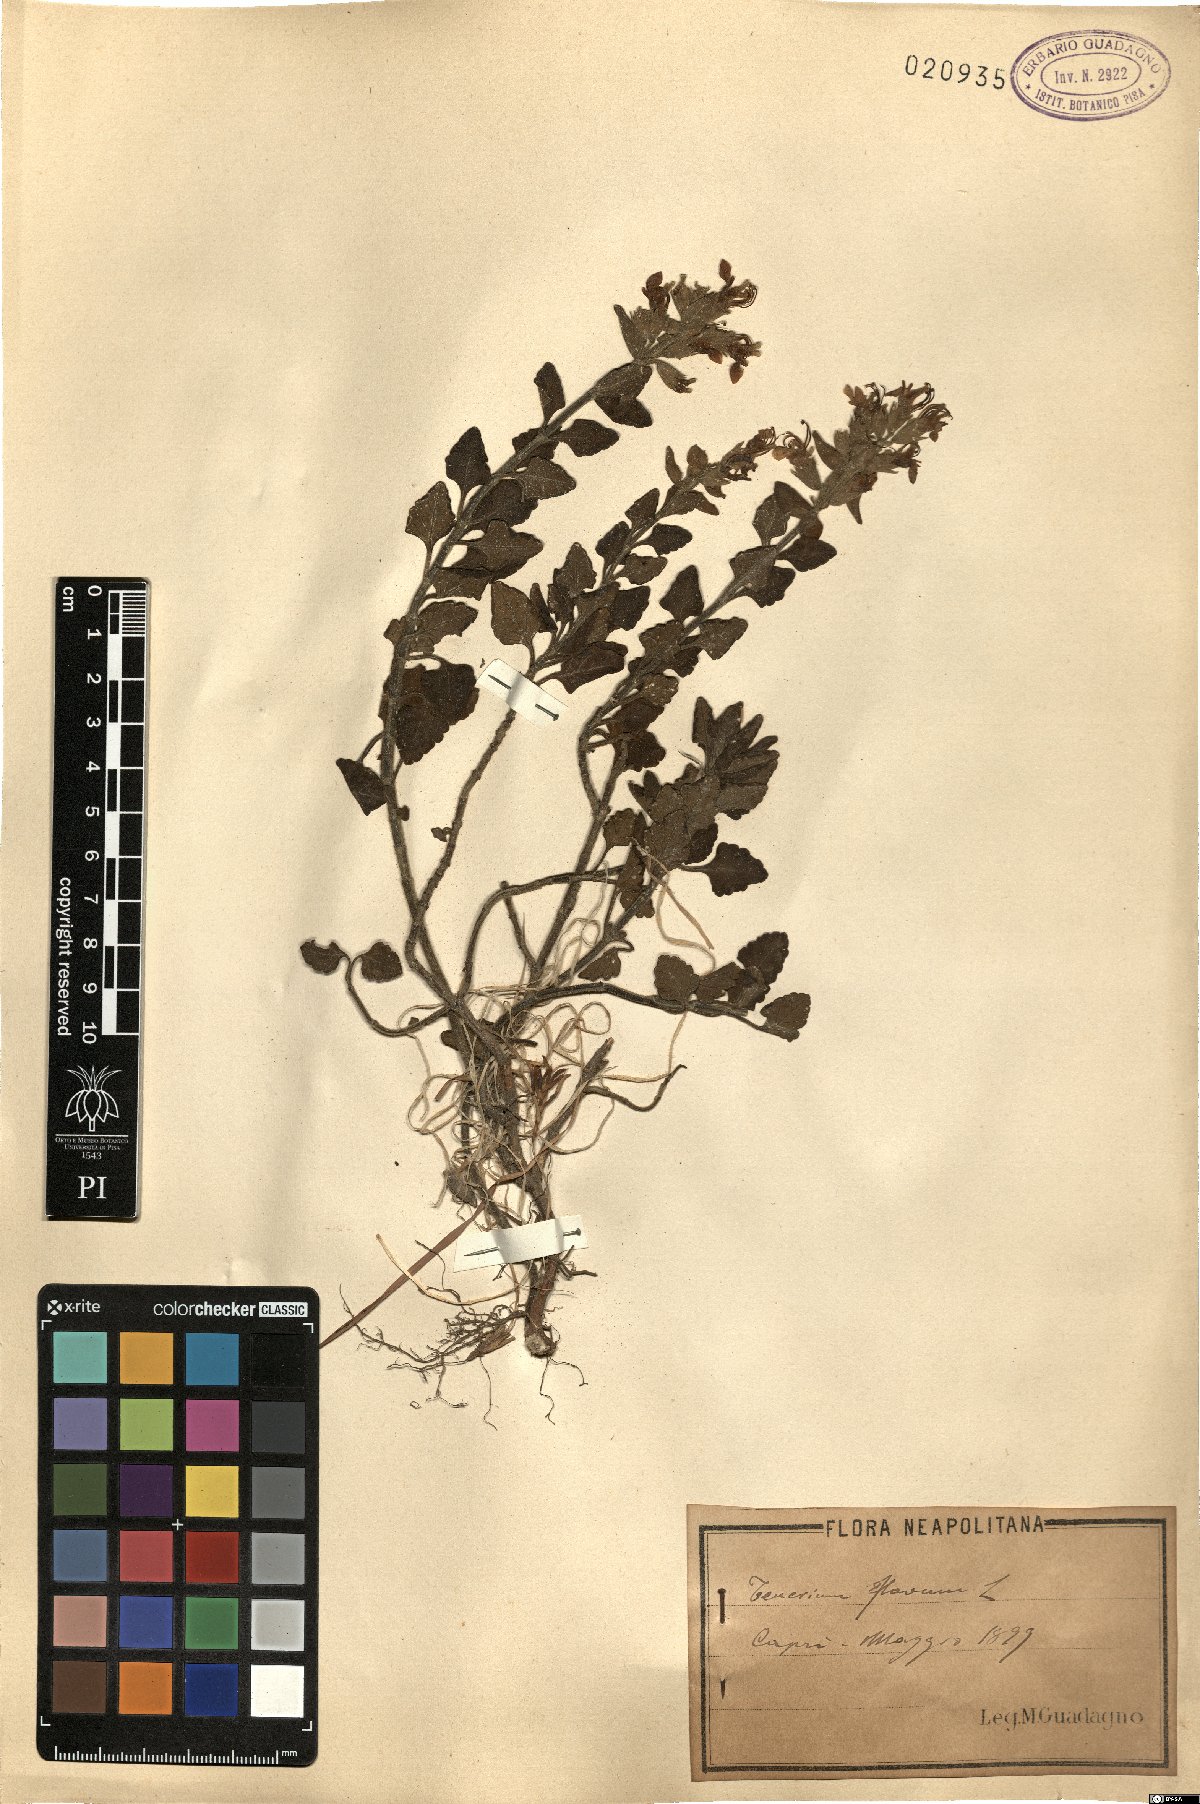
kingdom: Plantae
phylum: Tracheophyta
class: Magnoliopsida
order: Lamiales
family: Lamiaceae
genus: Teucrium
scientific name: Teucrium flavum
